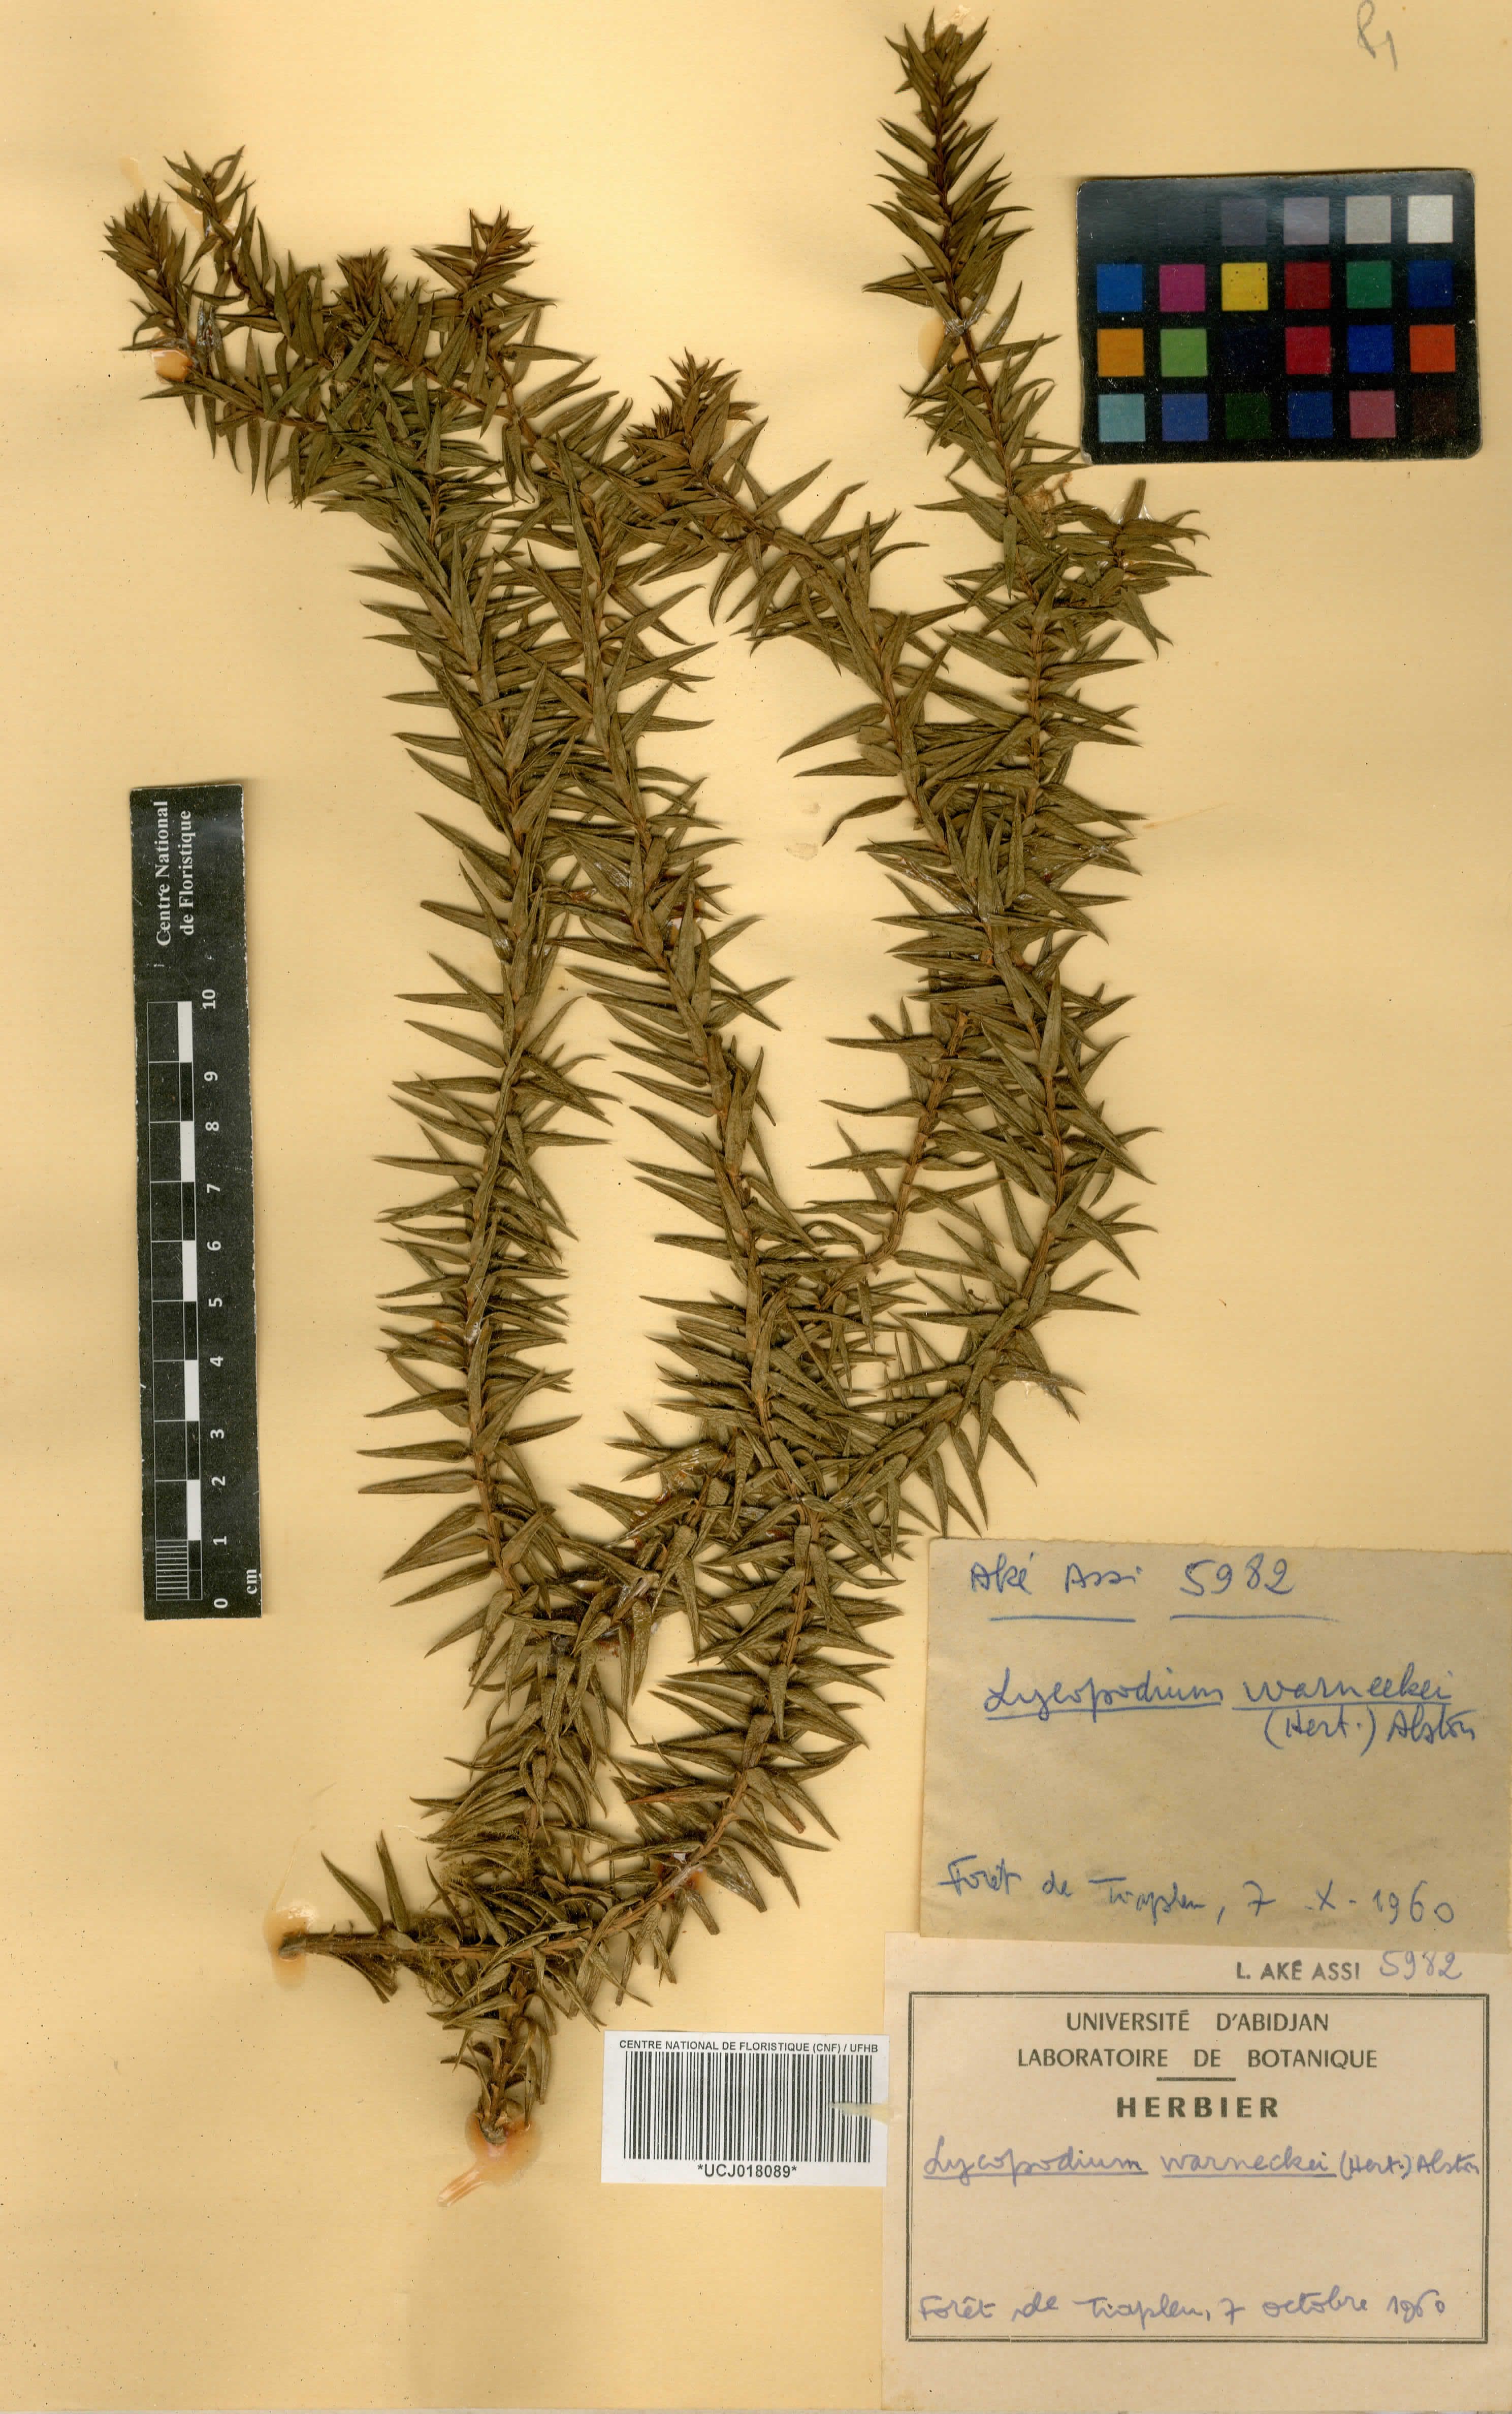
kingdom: Plantae
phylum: Tracheophyta
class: Lycopodiopsida
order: Lycopodiales
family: Lycopodiaceae
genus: Phlegmariurus
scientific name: Phlegmariurus warneckei
